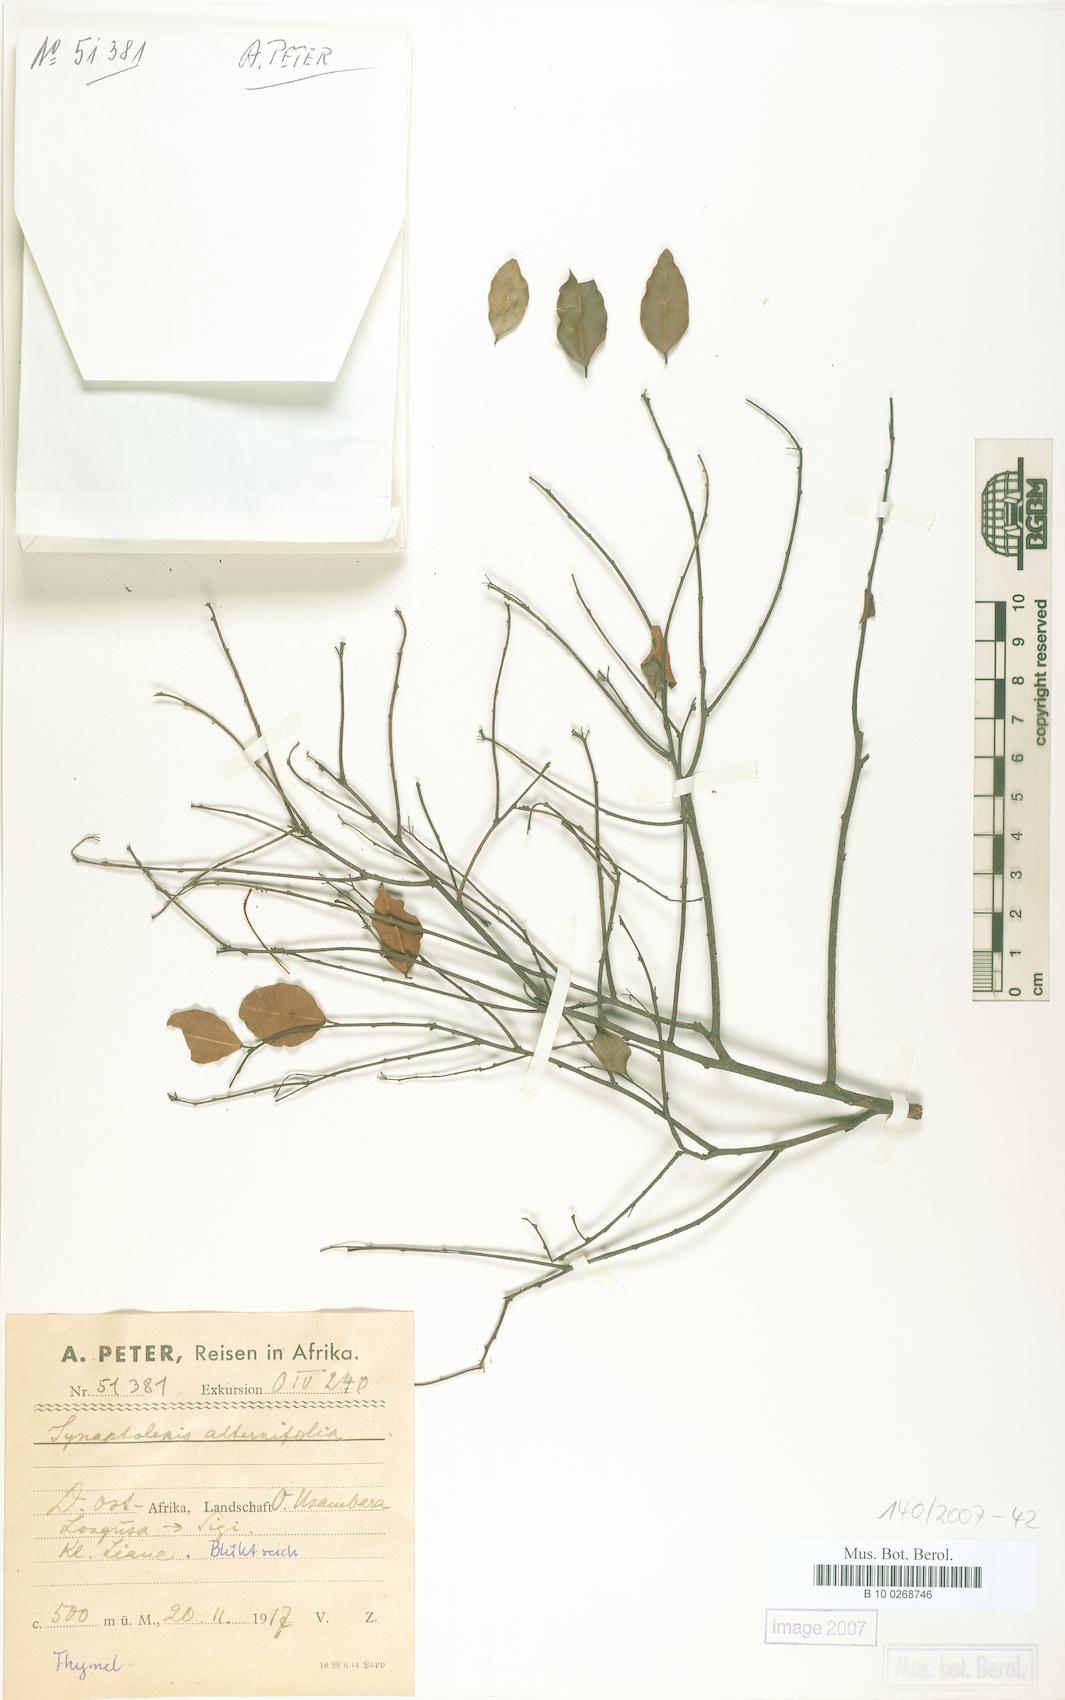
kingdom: Plantae
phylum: Tracheophyta
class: Magnoliopsida
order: Malvales
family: Thymelaeaceae
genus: Synaptolepis
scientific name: Synaptolepis alternifolia
